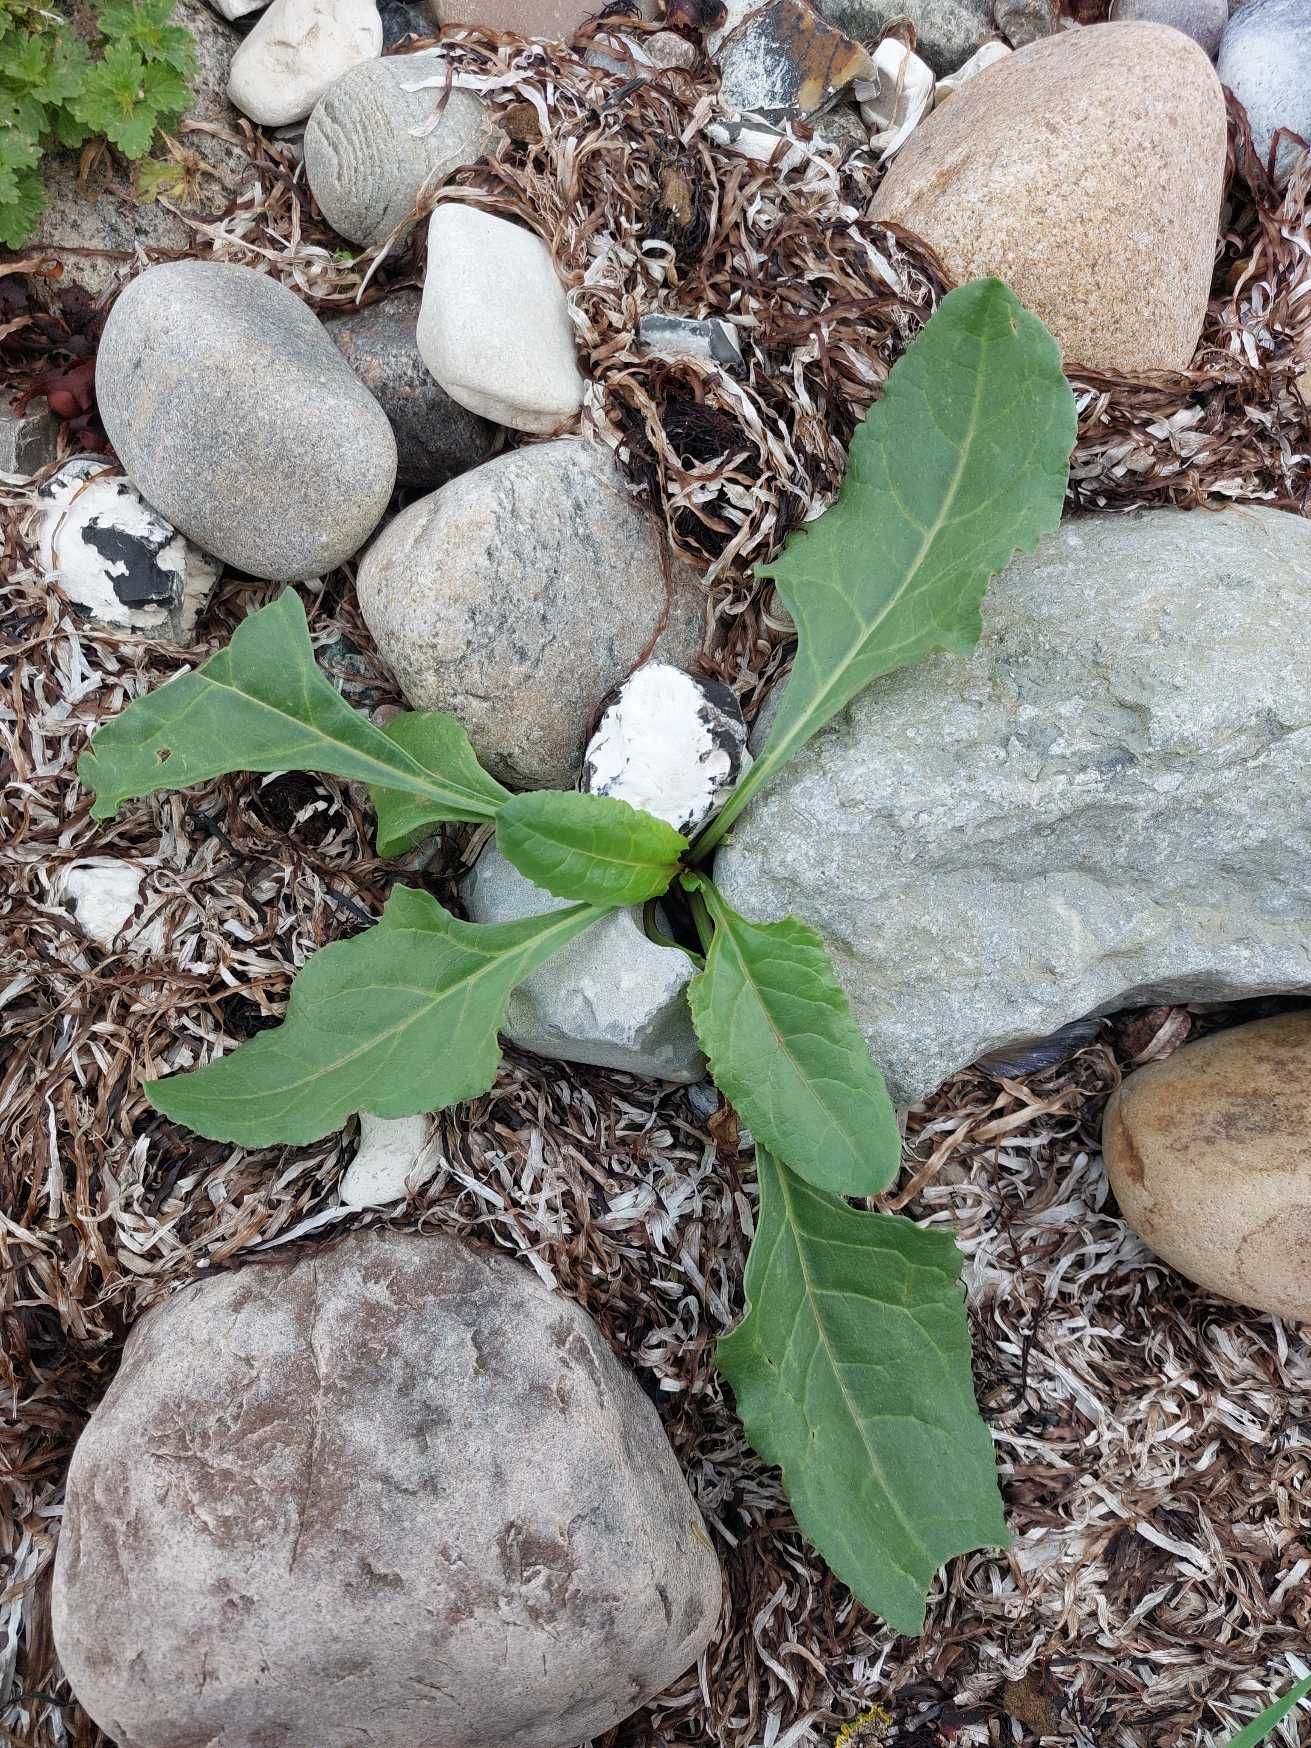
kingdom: Plantae
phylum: Tracheophyta
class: Magnoliopsida
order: Caryophyllales
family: Amaranthaceae
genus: Beta
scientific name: Beta maritima
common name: Strand-bede
